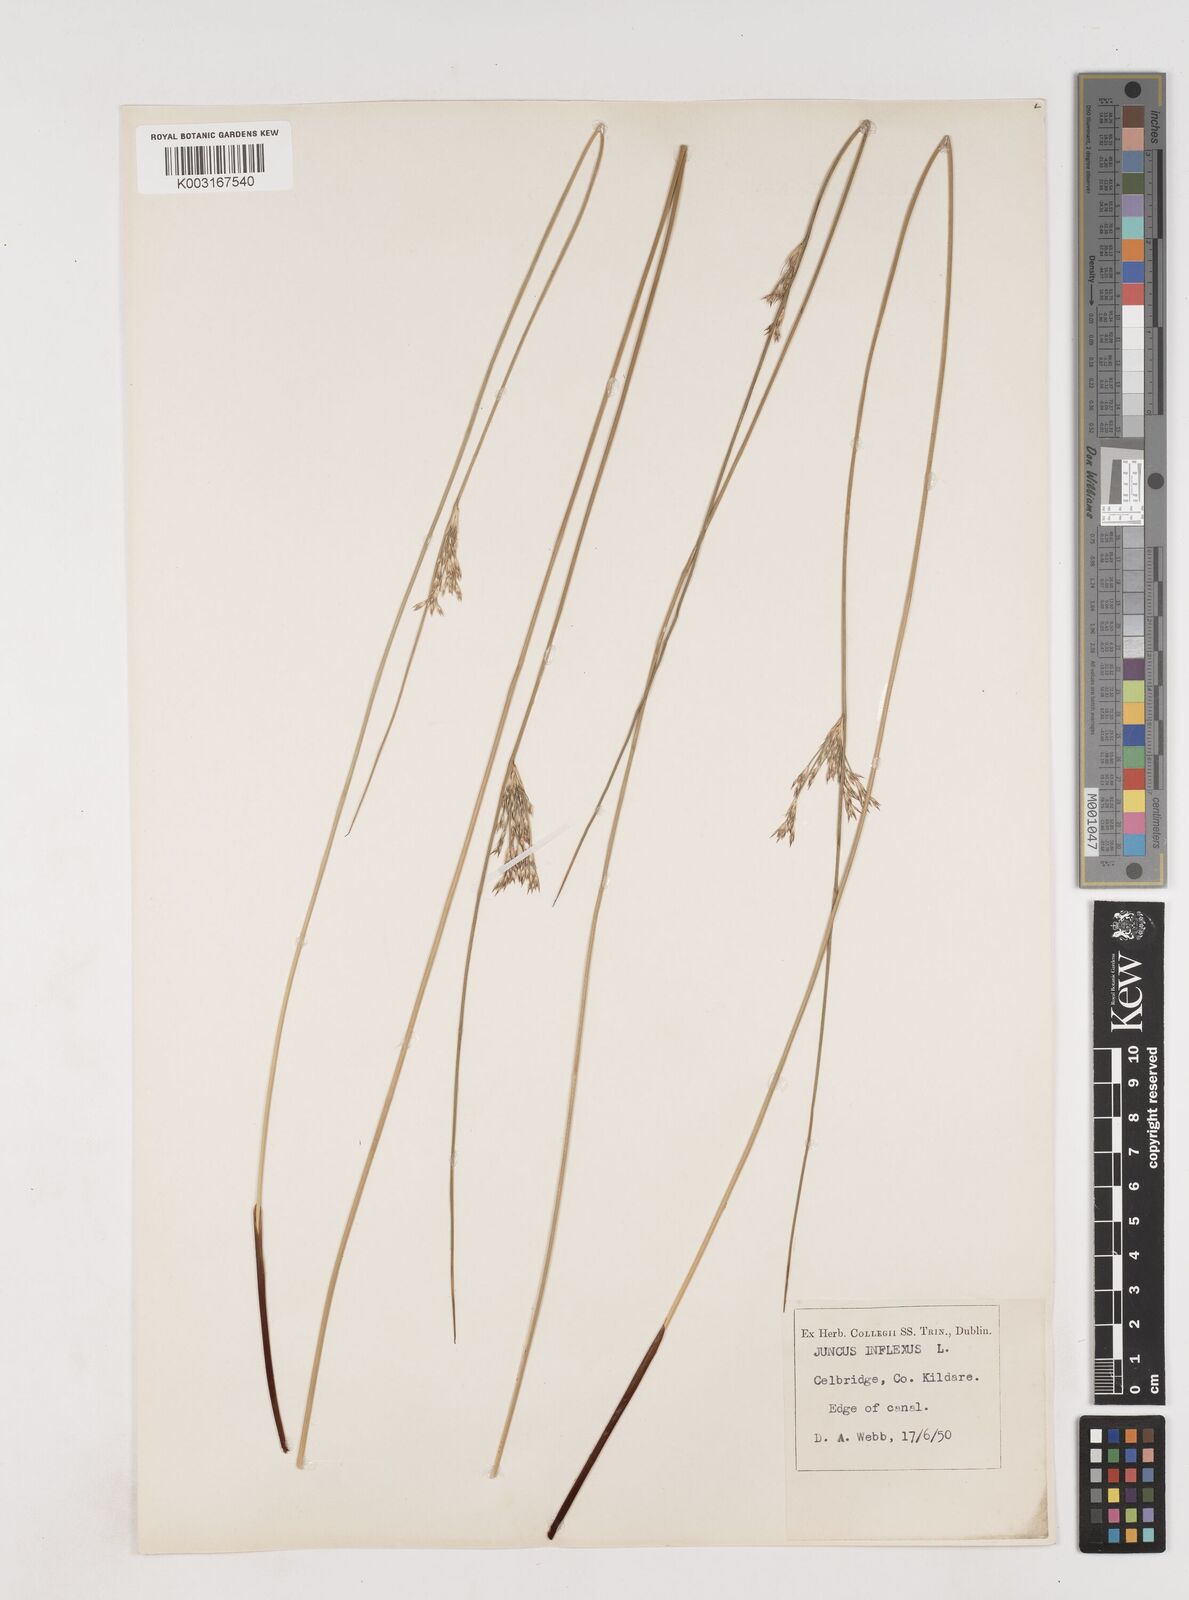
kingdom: Plantae
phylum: Tracheophyta
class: Liliopsida
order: Poales
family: Juncaceae
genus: Juncus
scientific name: Juncus inflexus
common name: Hard rush
